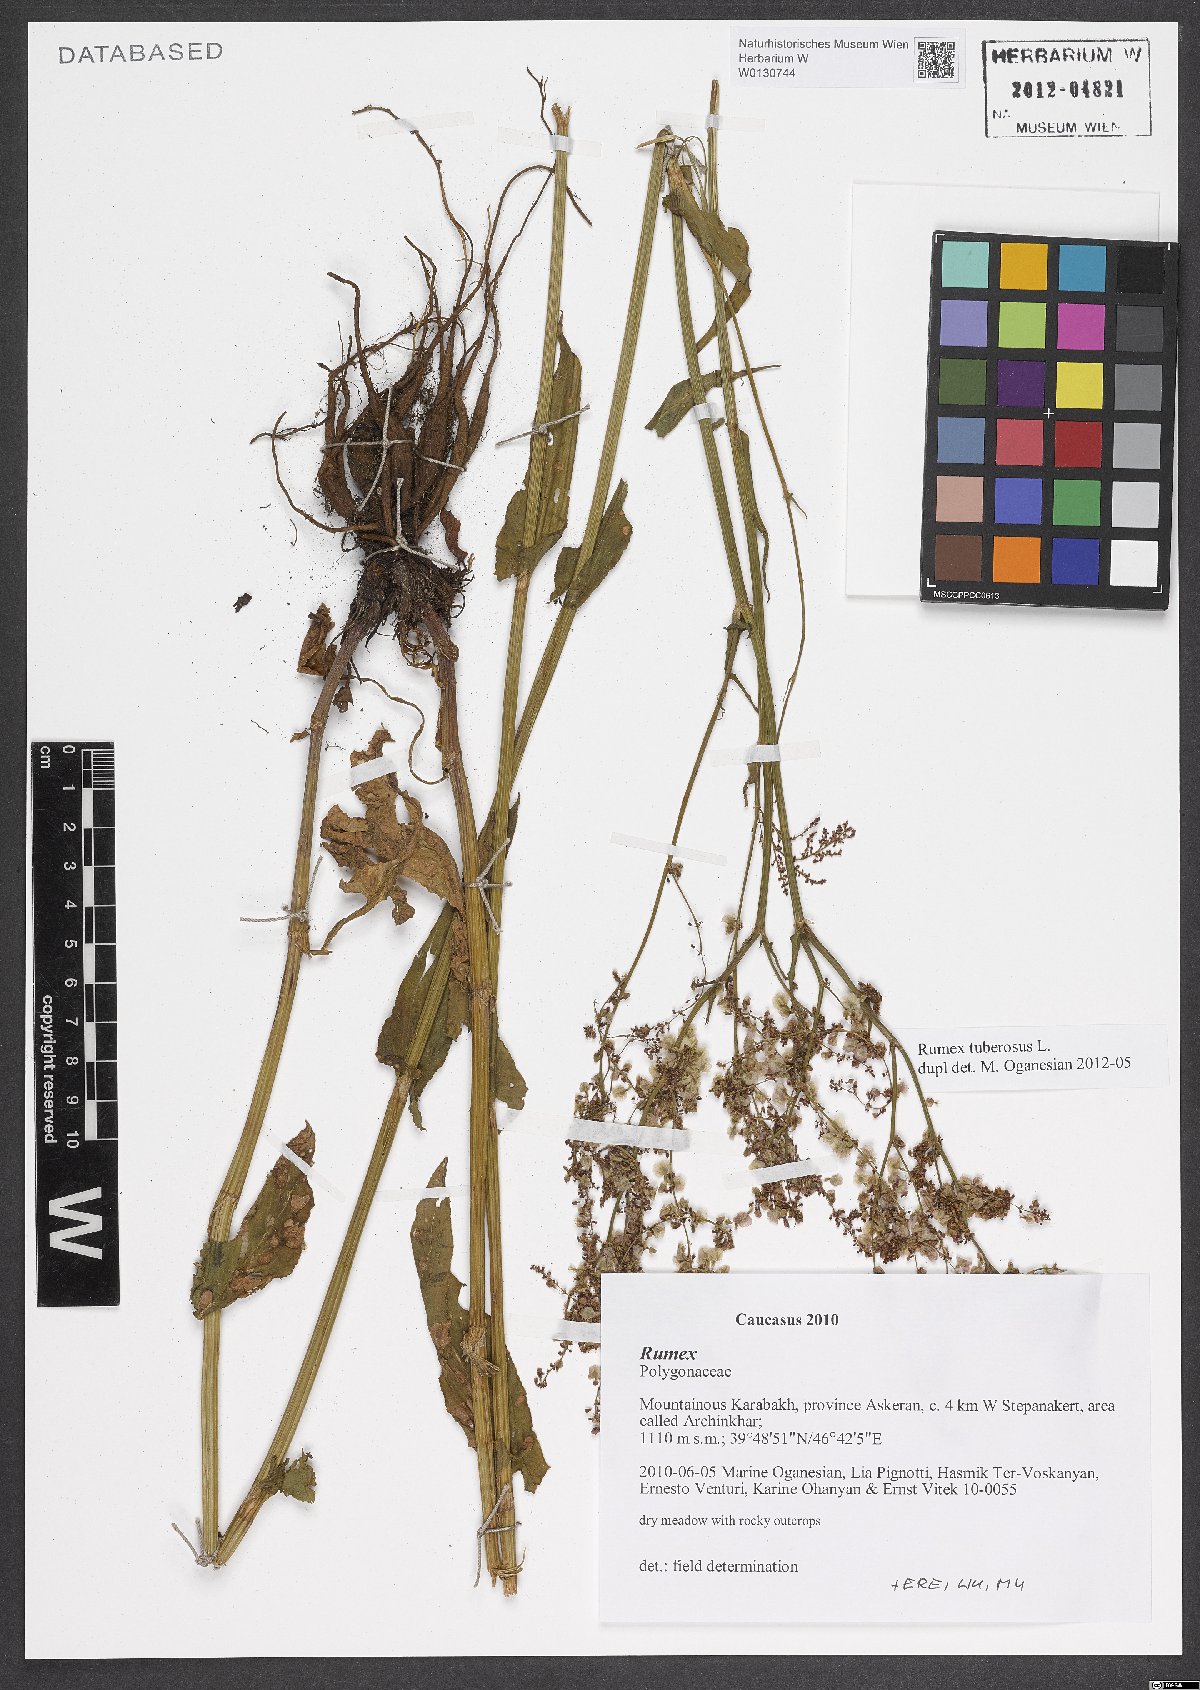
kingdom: Plantae
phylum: Tracheophyta
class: Magnoliopsida
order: Caryophyllales
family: Polygonaceae
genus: Rumex
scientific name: Rumex tuberosus
